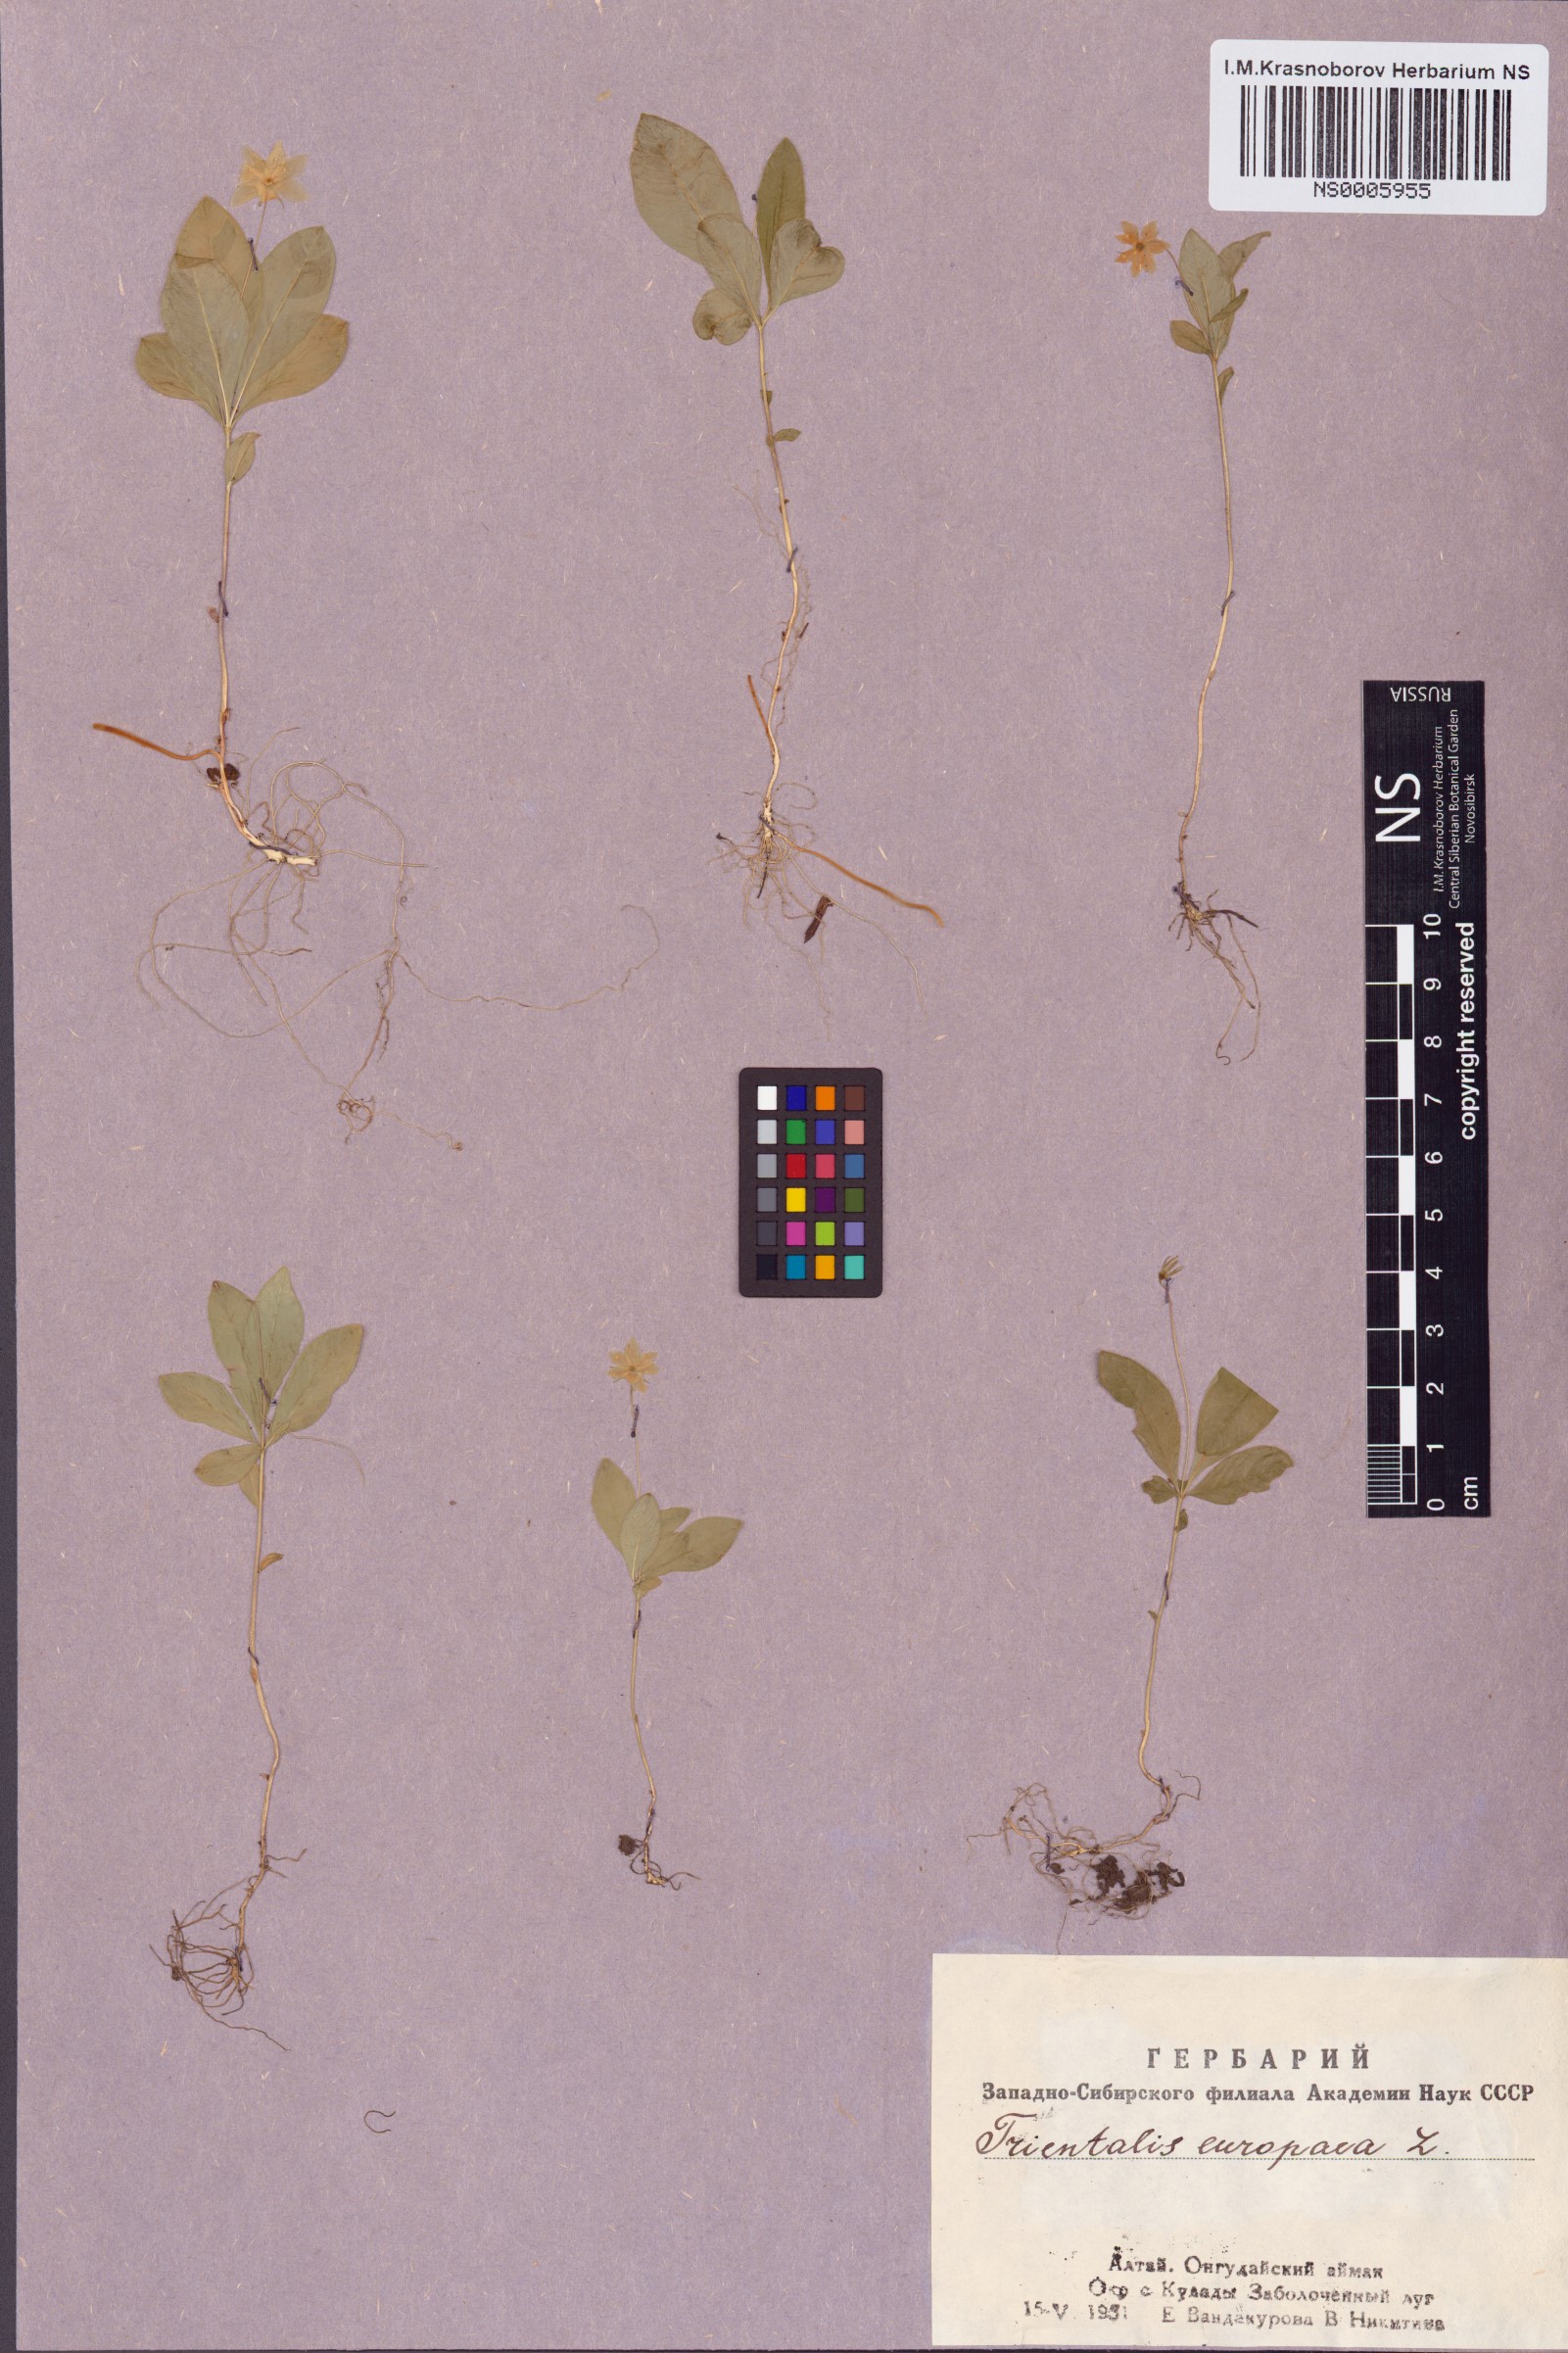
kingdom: Plantae
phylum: Tracheophyta
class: Magnoliopsida
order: Ericales
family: Primulaceae
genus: Lysimachia
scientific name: Lysimachia europaea
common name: Arctic starflower
